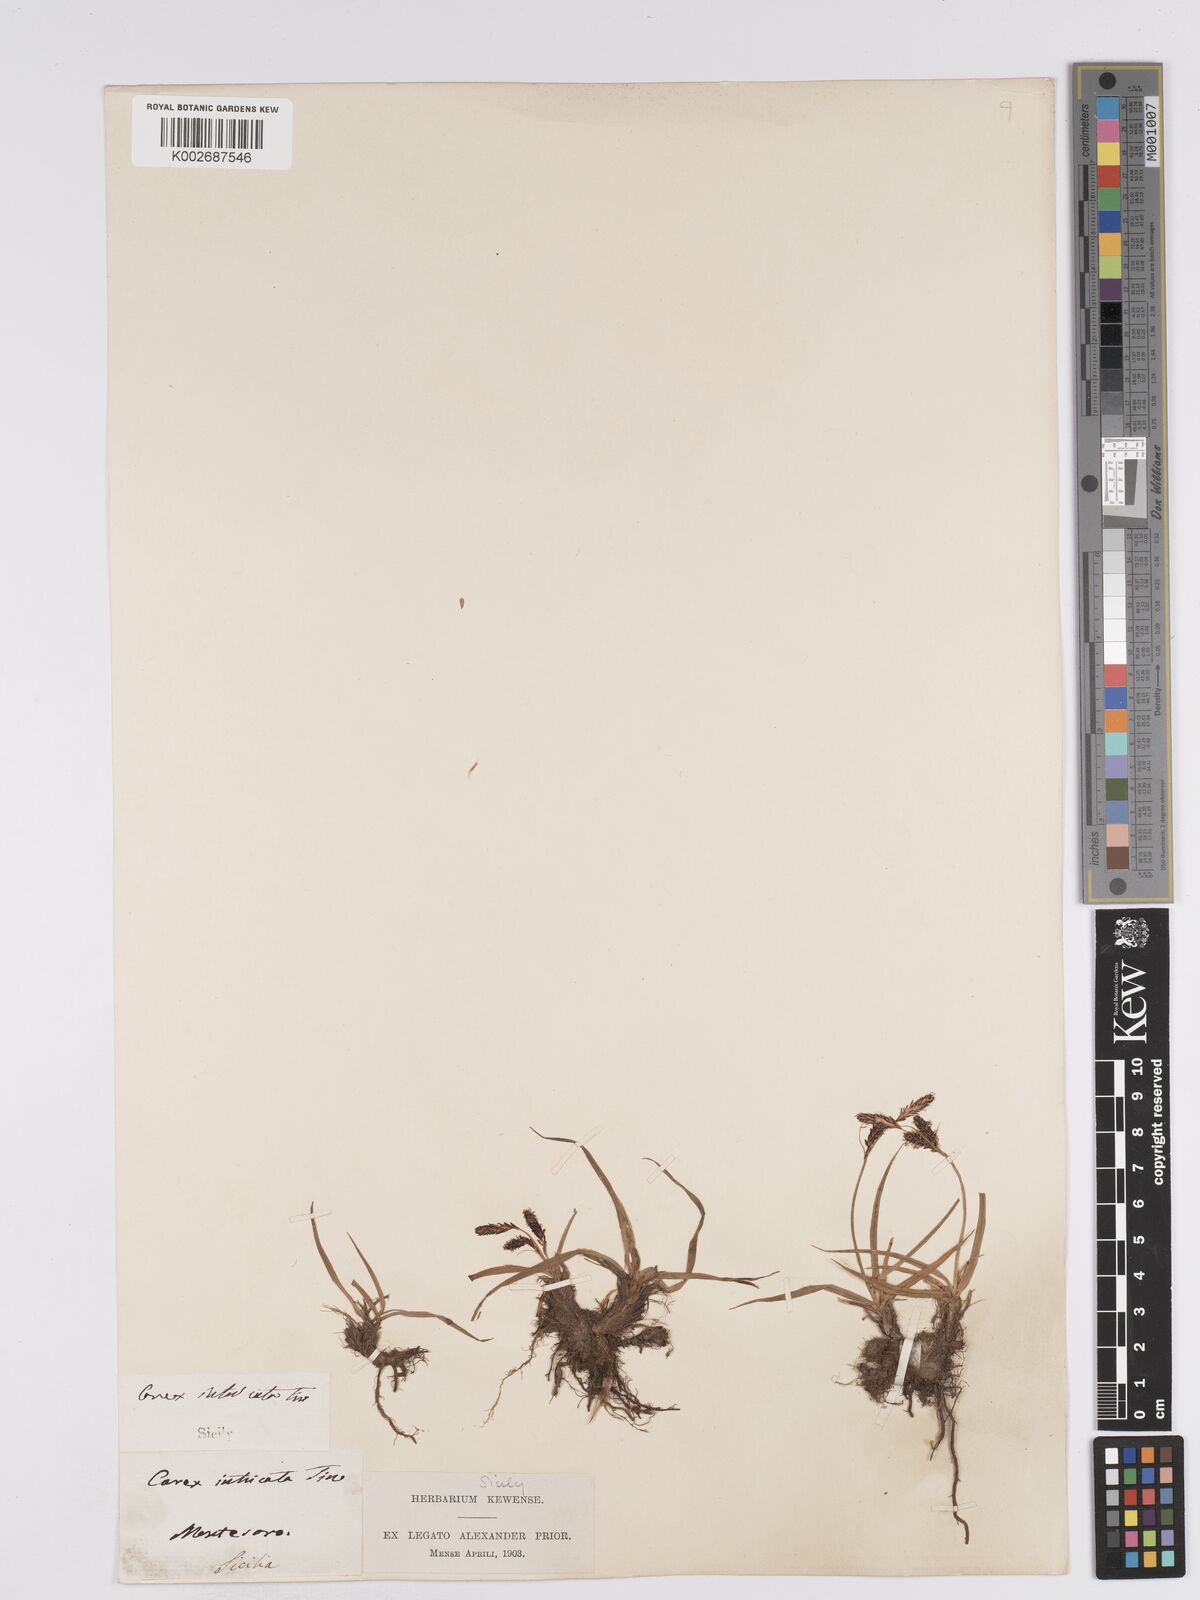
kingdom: Plantae
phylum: Tracheophyta
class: Liliopsida
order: Poales
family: Cyperaceae
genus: Carex
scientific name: Carex nigra
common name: Common sedge
